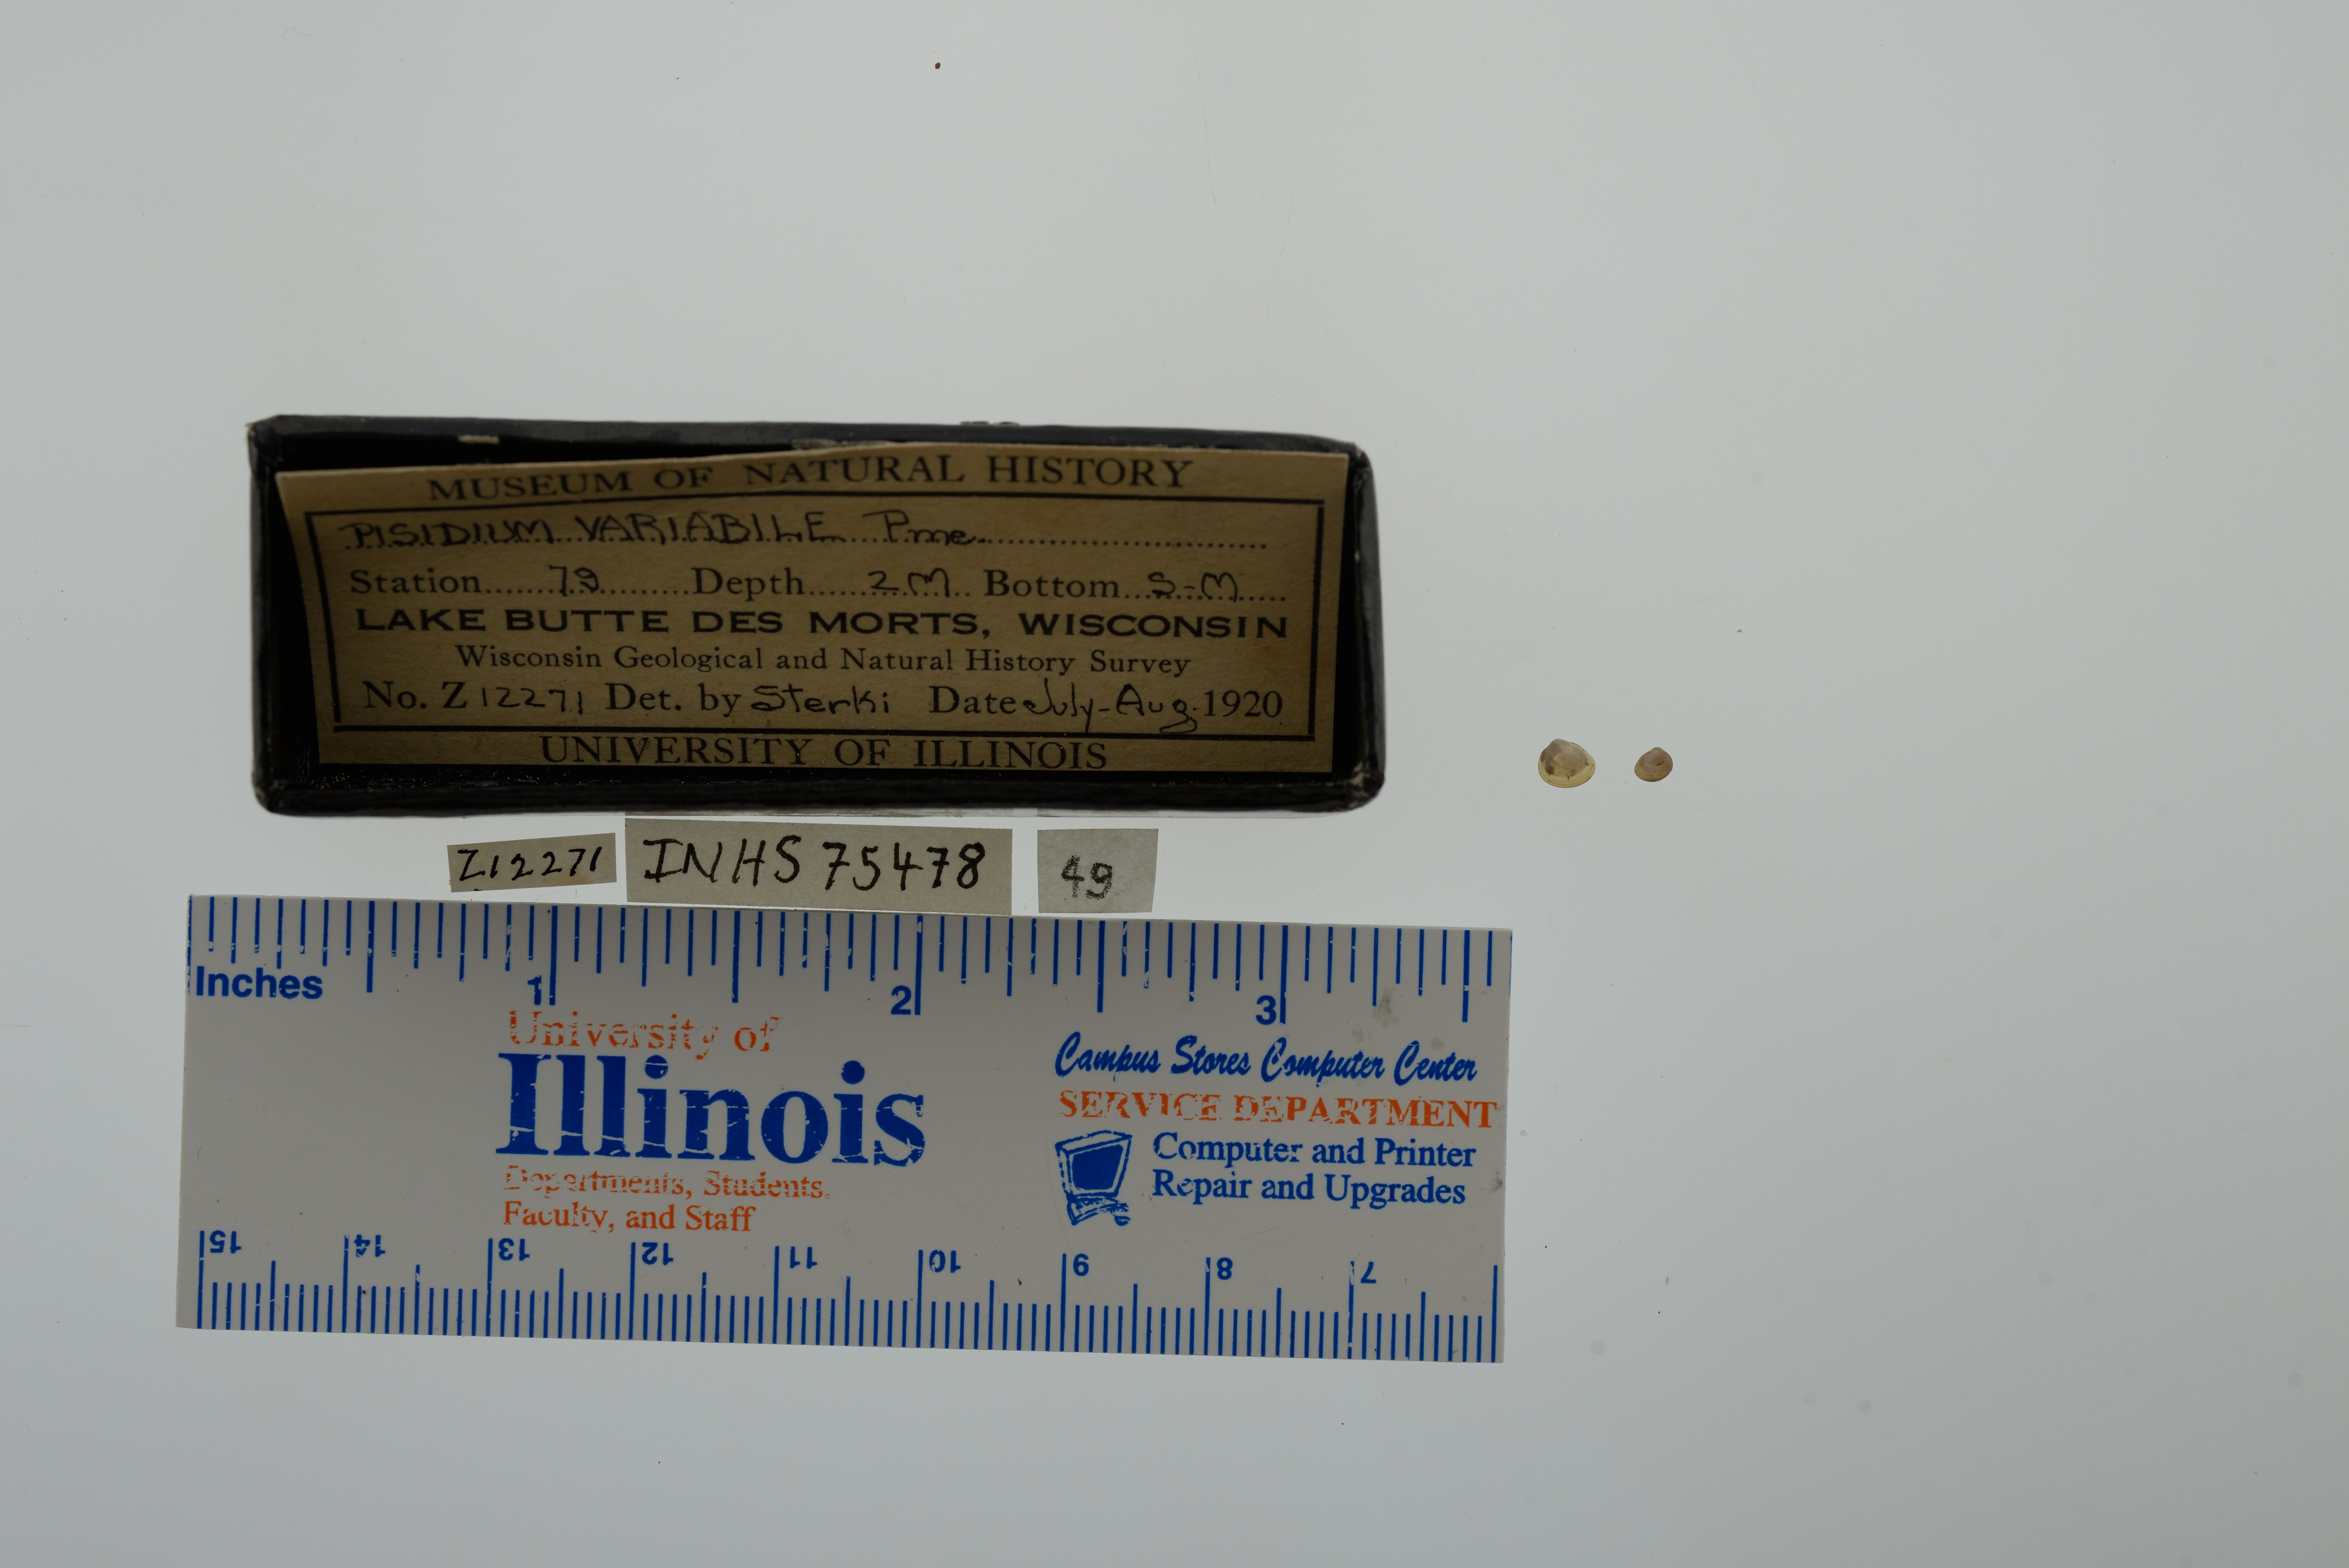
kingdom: Animalia
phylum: Mollusca
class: Bivalvia
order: Sphaeriida
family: Sphaeriidae
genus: Euglesa
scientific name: Euglesa variabilis
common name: Triangular peaclam
